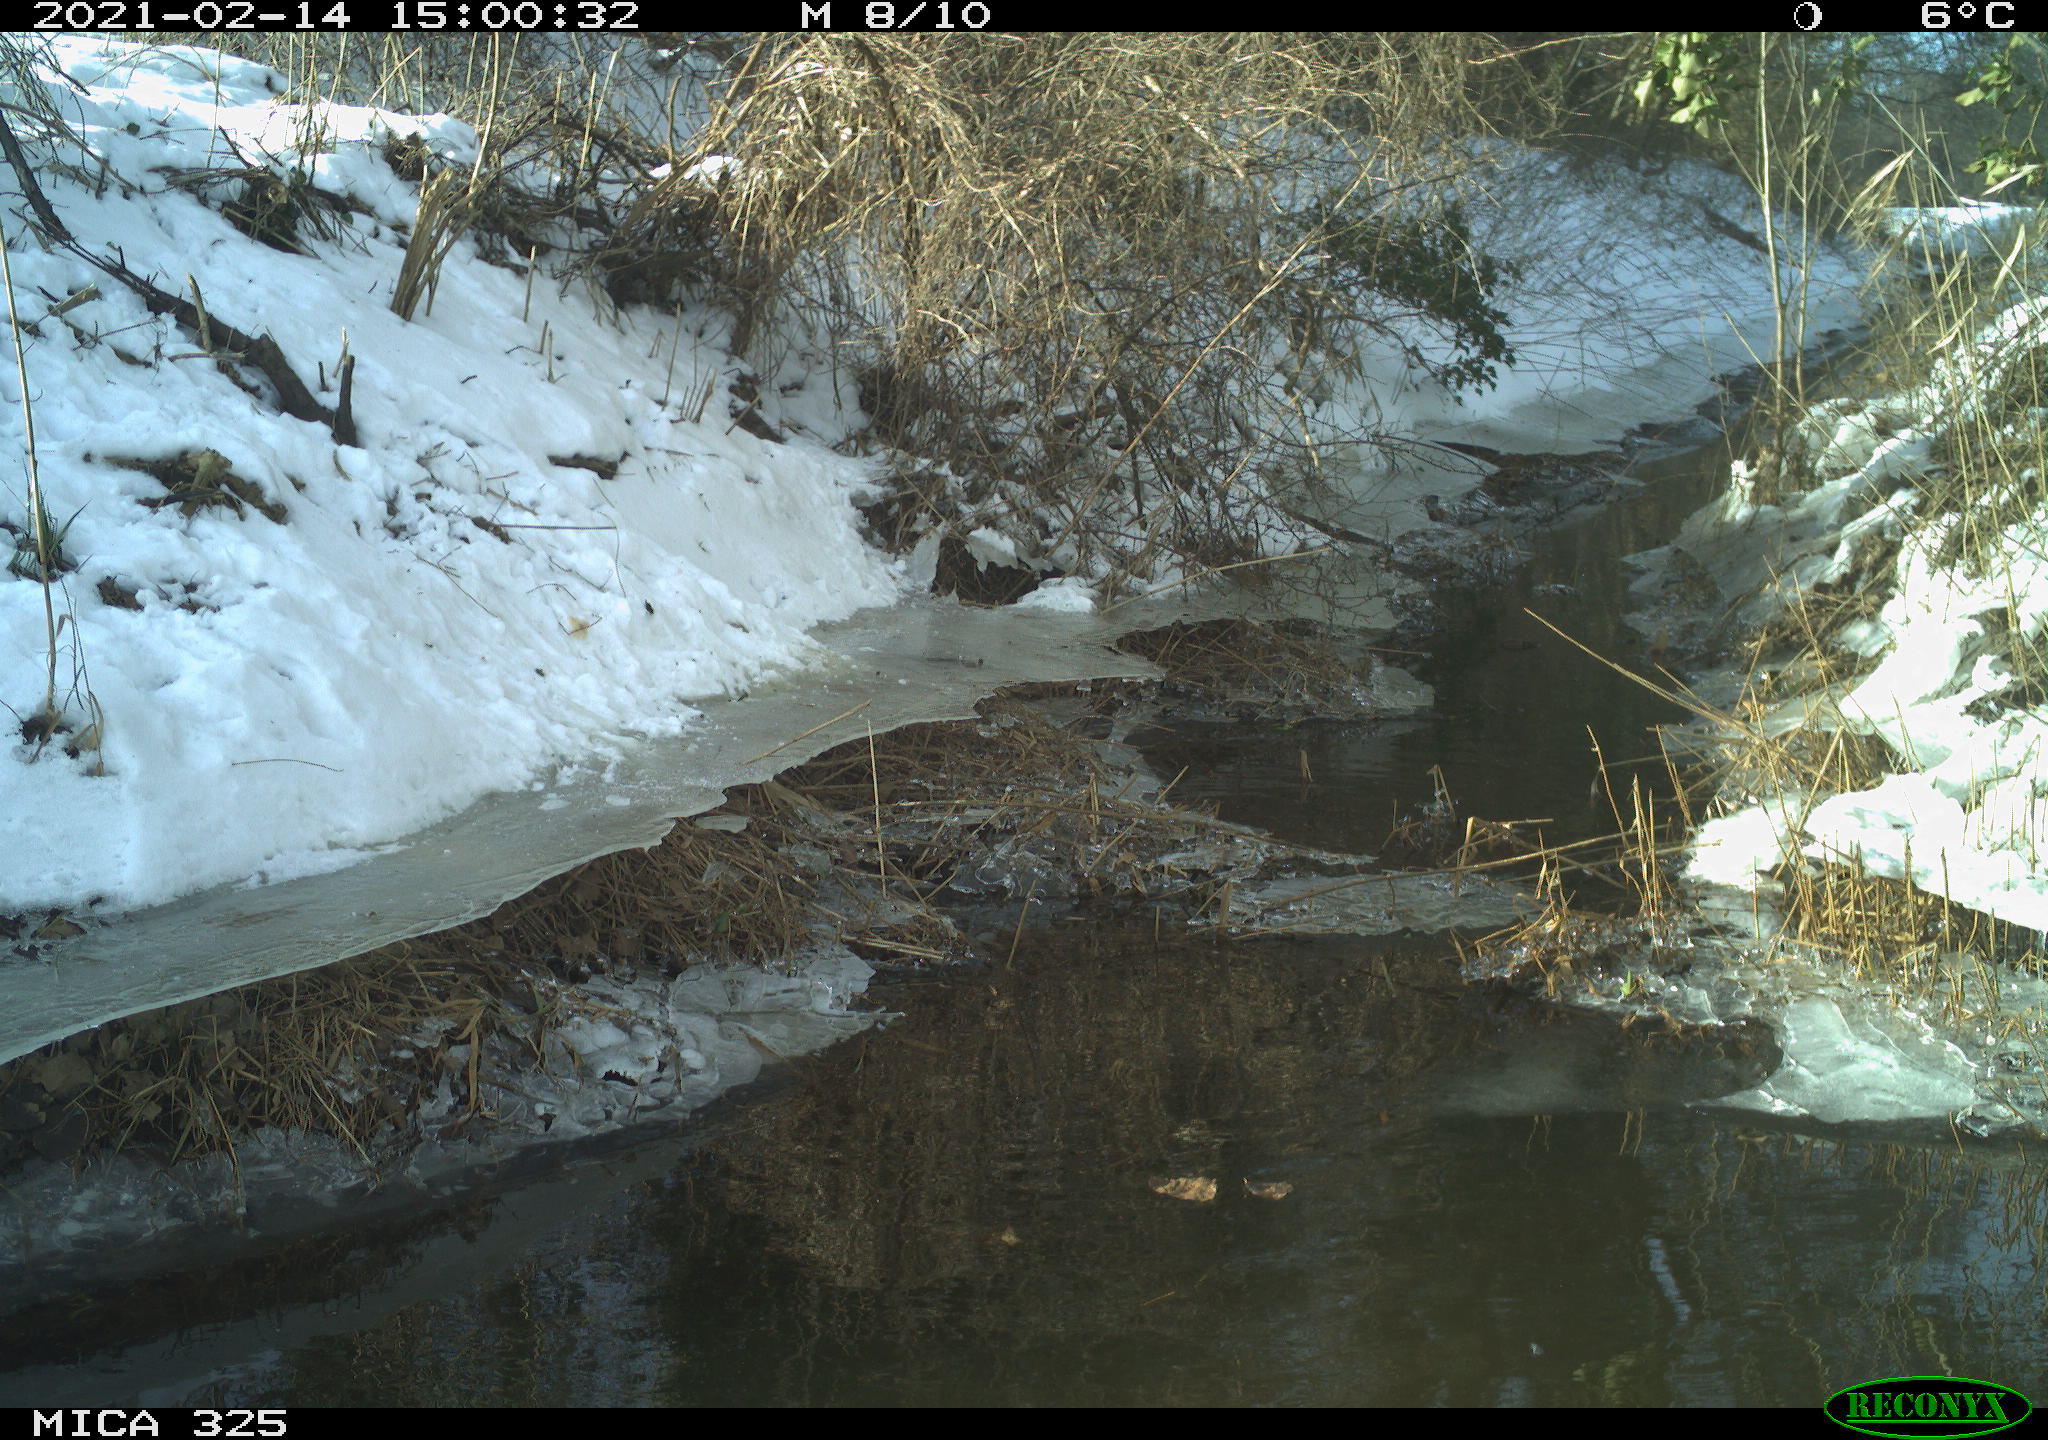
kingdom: Animalia
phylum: Chordata
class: Aves
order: Columbiformes
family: Columbidae
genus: Columba
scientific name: Columba palumbus
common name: Common wood pigeon
